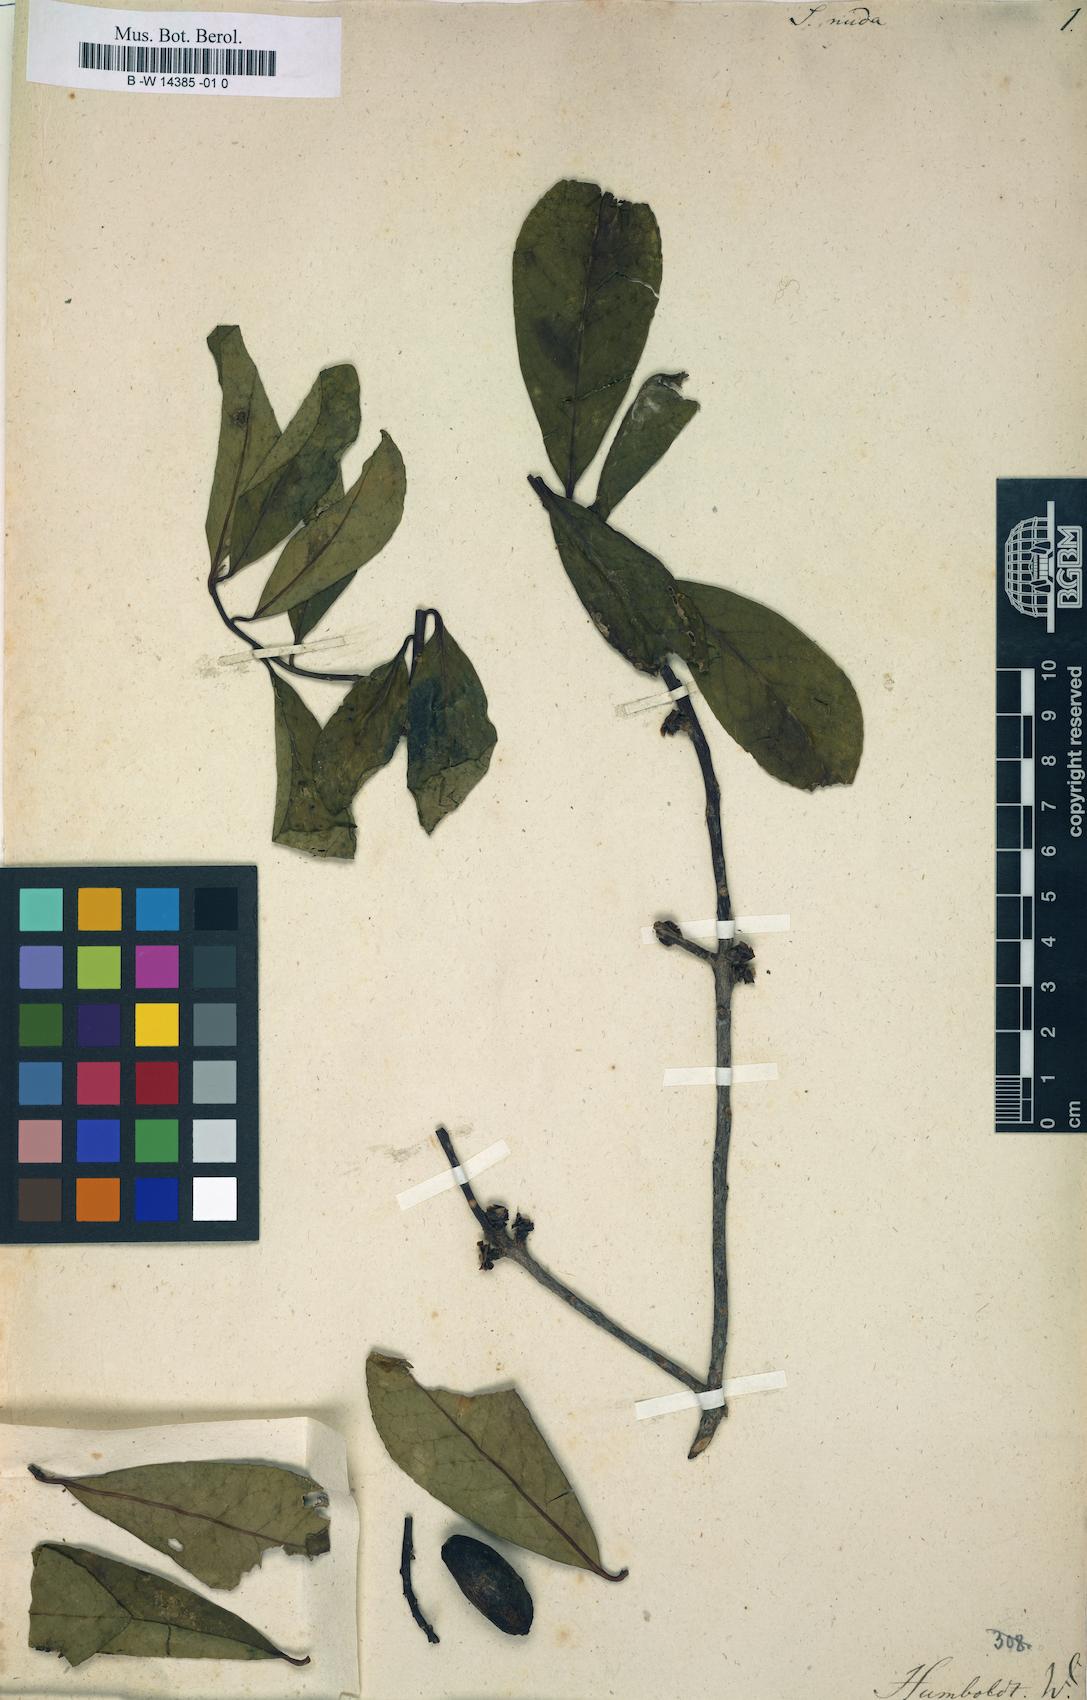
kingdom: Plantae
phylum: Tracheophyta
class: Magnoliopsida
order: Ericales
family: Symplocaceae
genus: Symplocos
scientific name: Symplocos nuda
